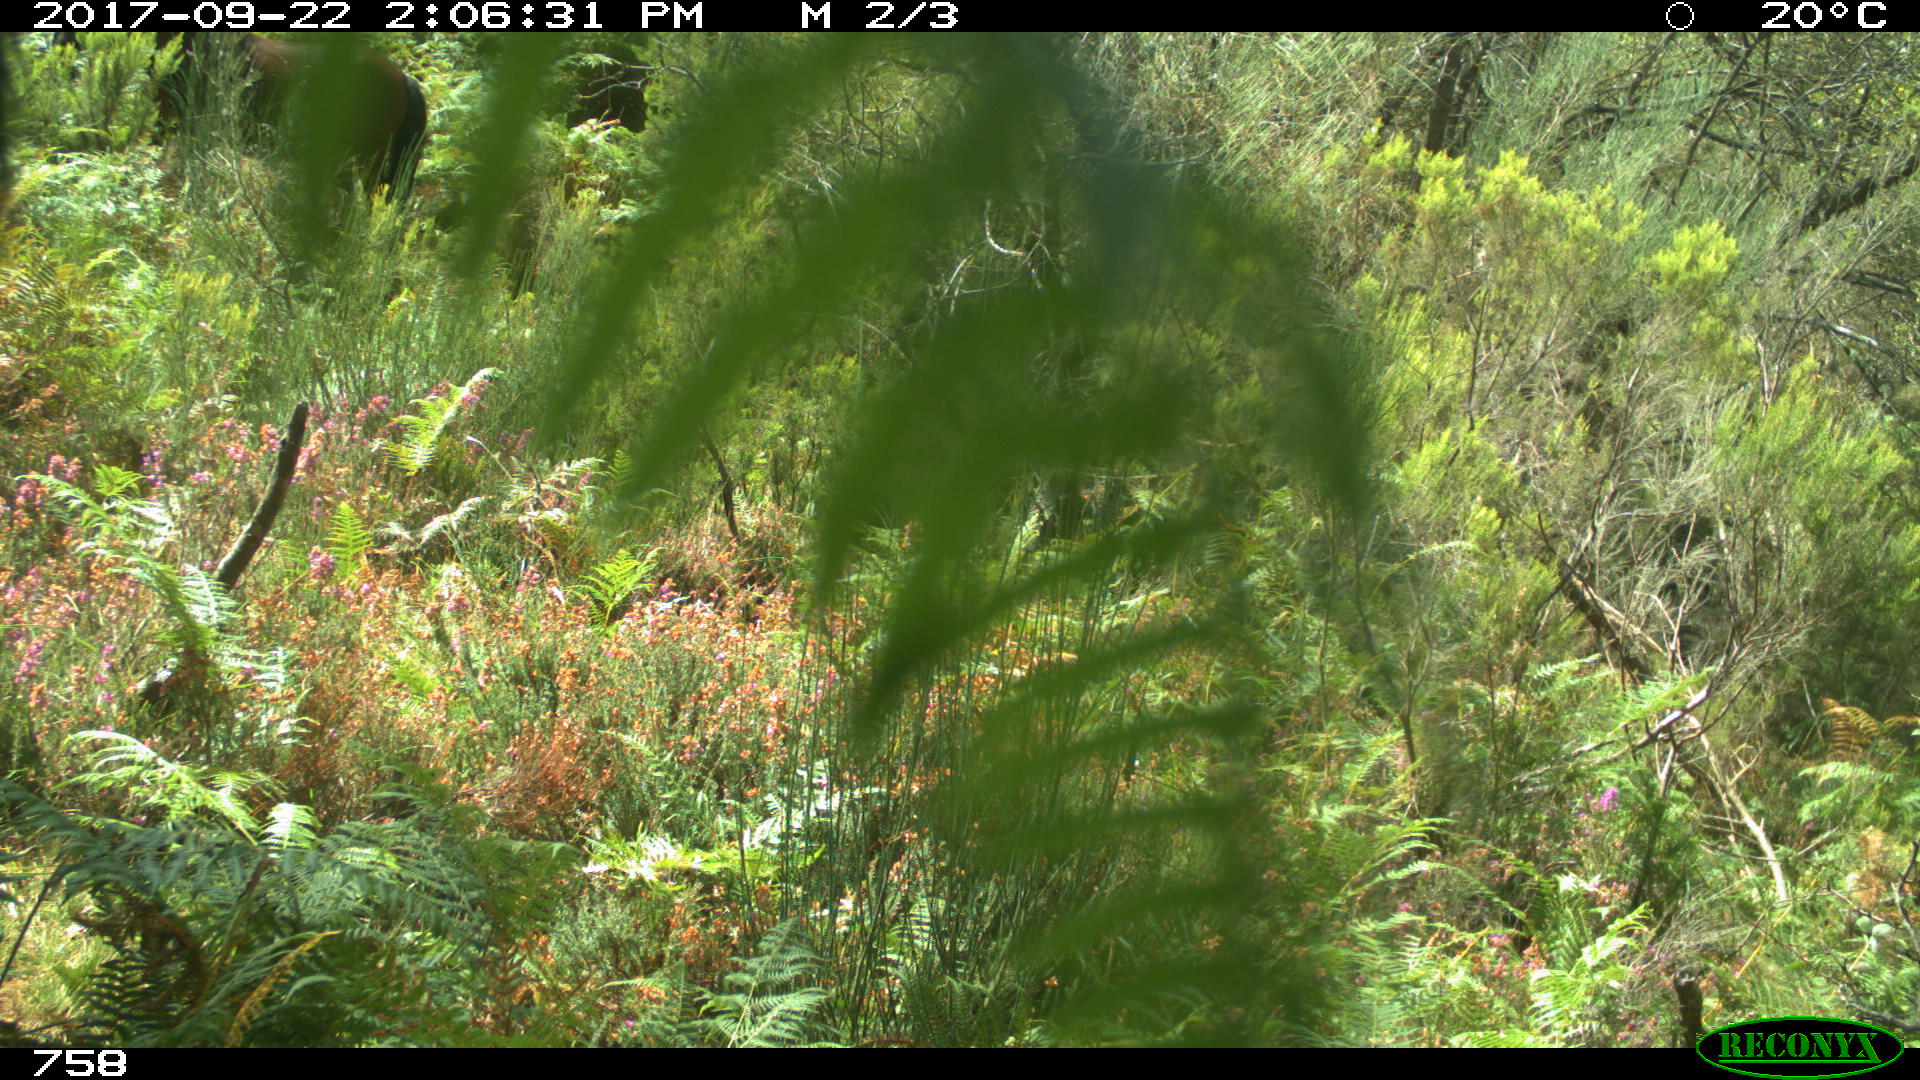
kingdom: Animalia
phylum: Chordata
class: Mammalia
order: Perissodactyla
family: Equidae
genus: Equus
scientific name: Equus caballus
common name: Horse
